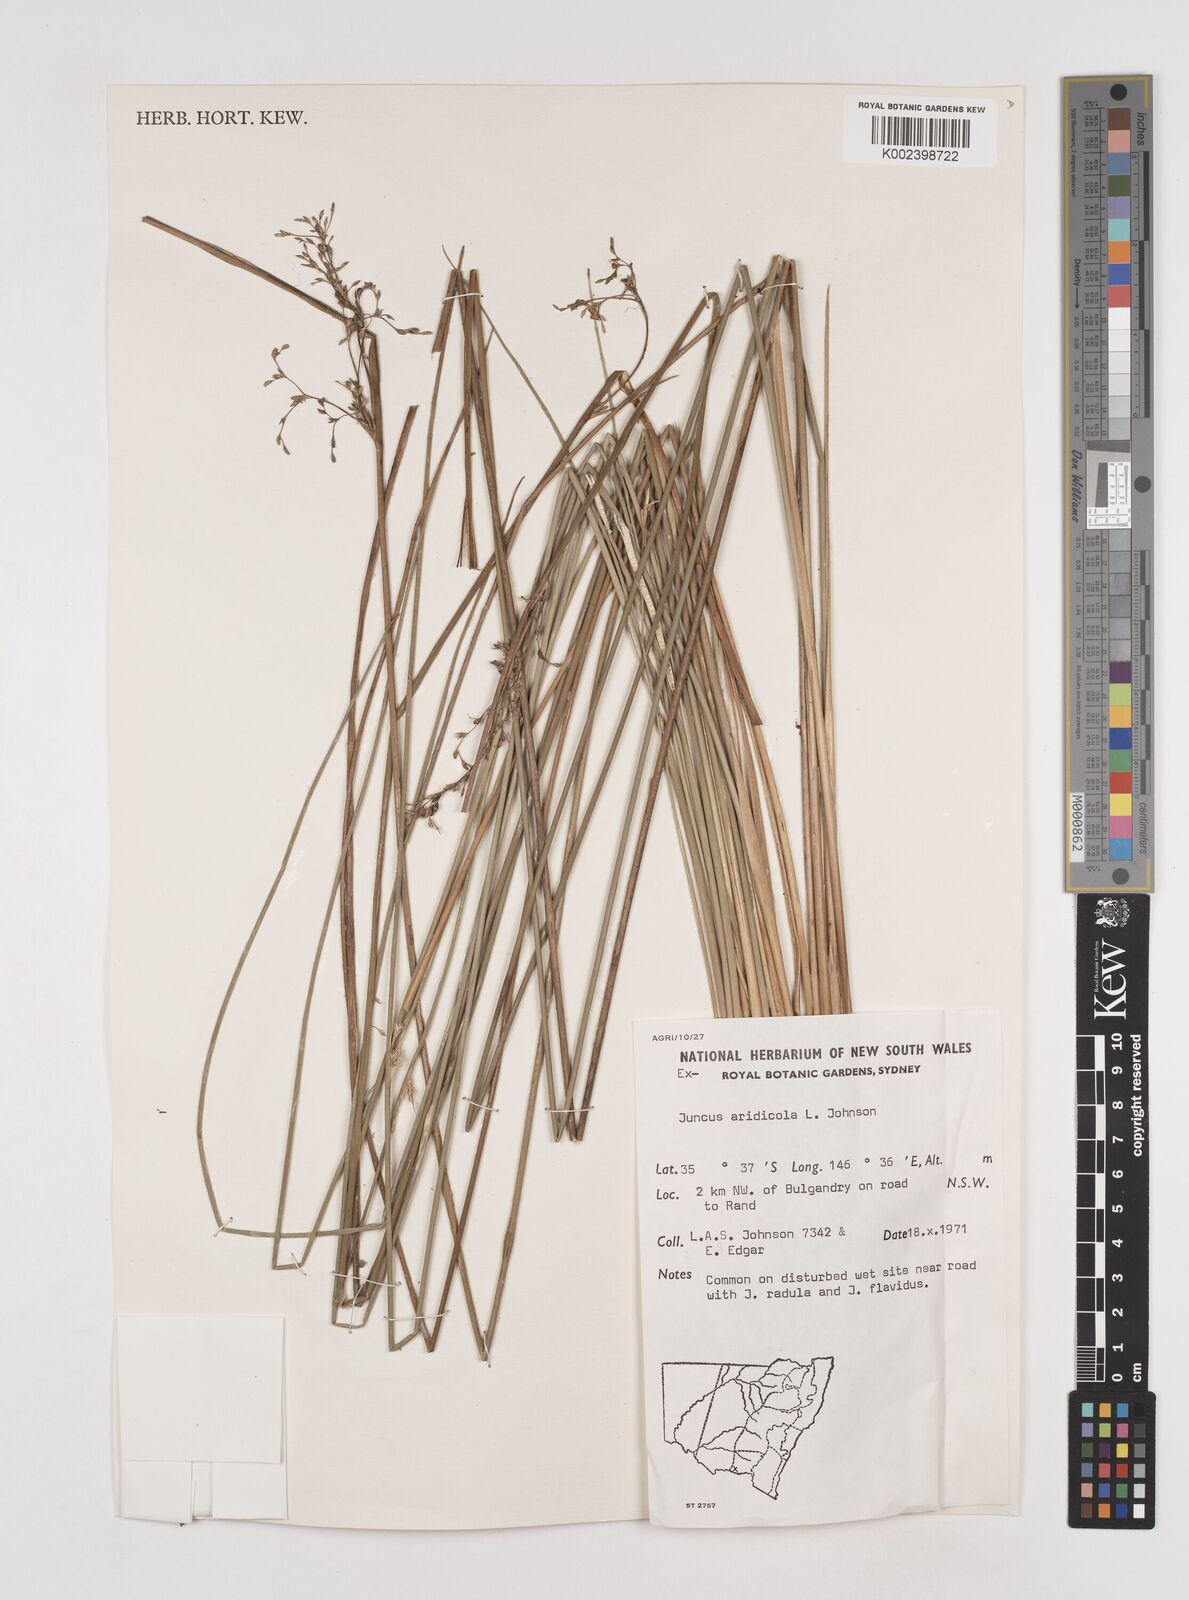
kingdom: Plantae
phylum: Tracheophyta
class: Liliopsida
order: Poales
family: Juncaceae
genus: Juncus
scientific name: Juncus aridicola
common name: Tussock rush
